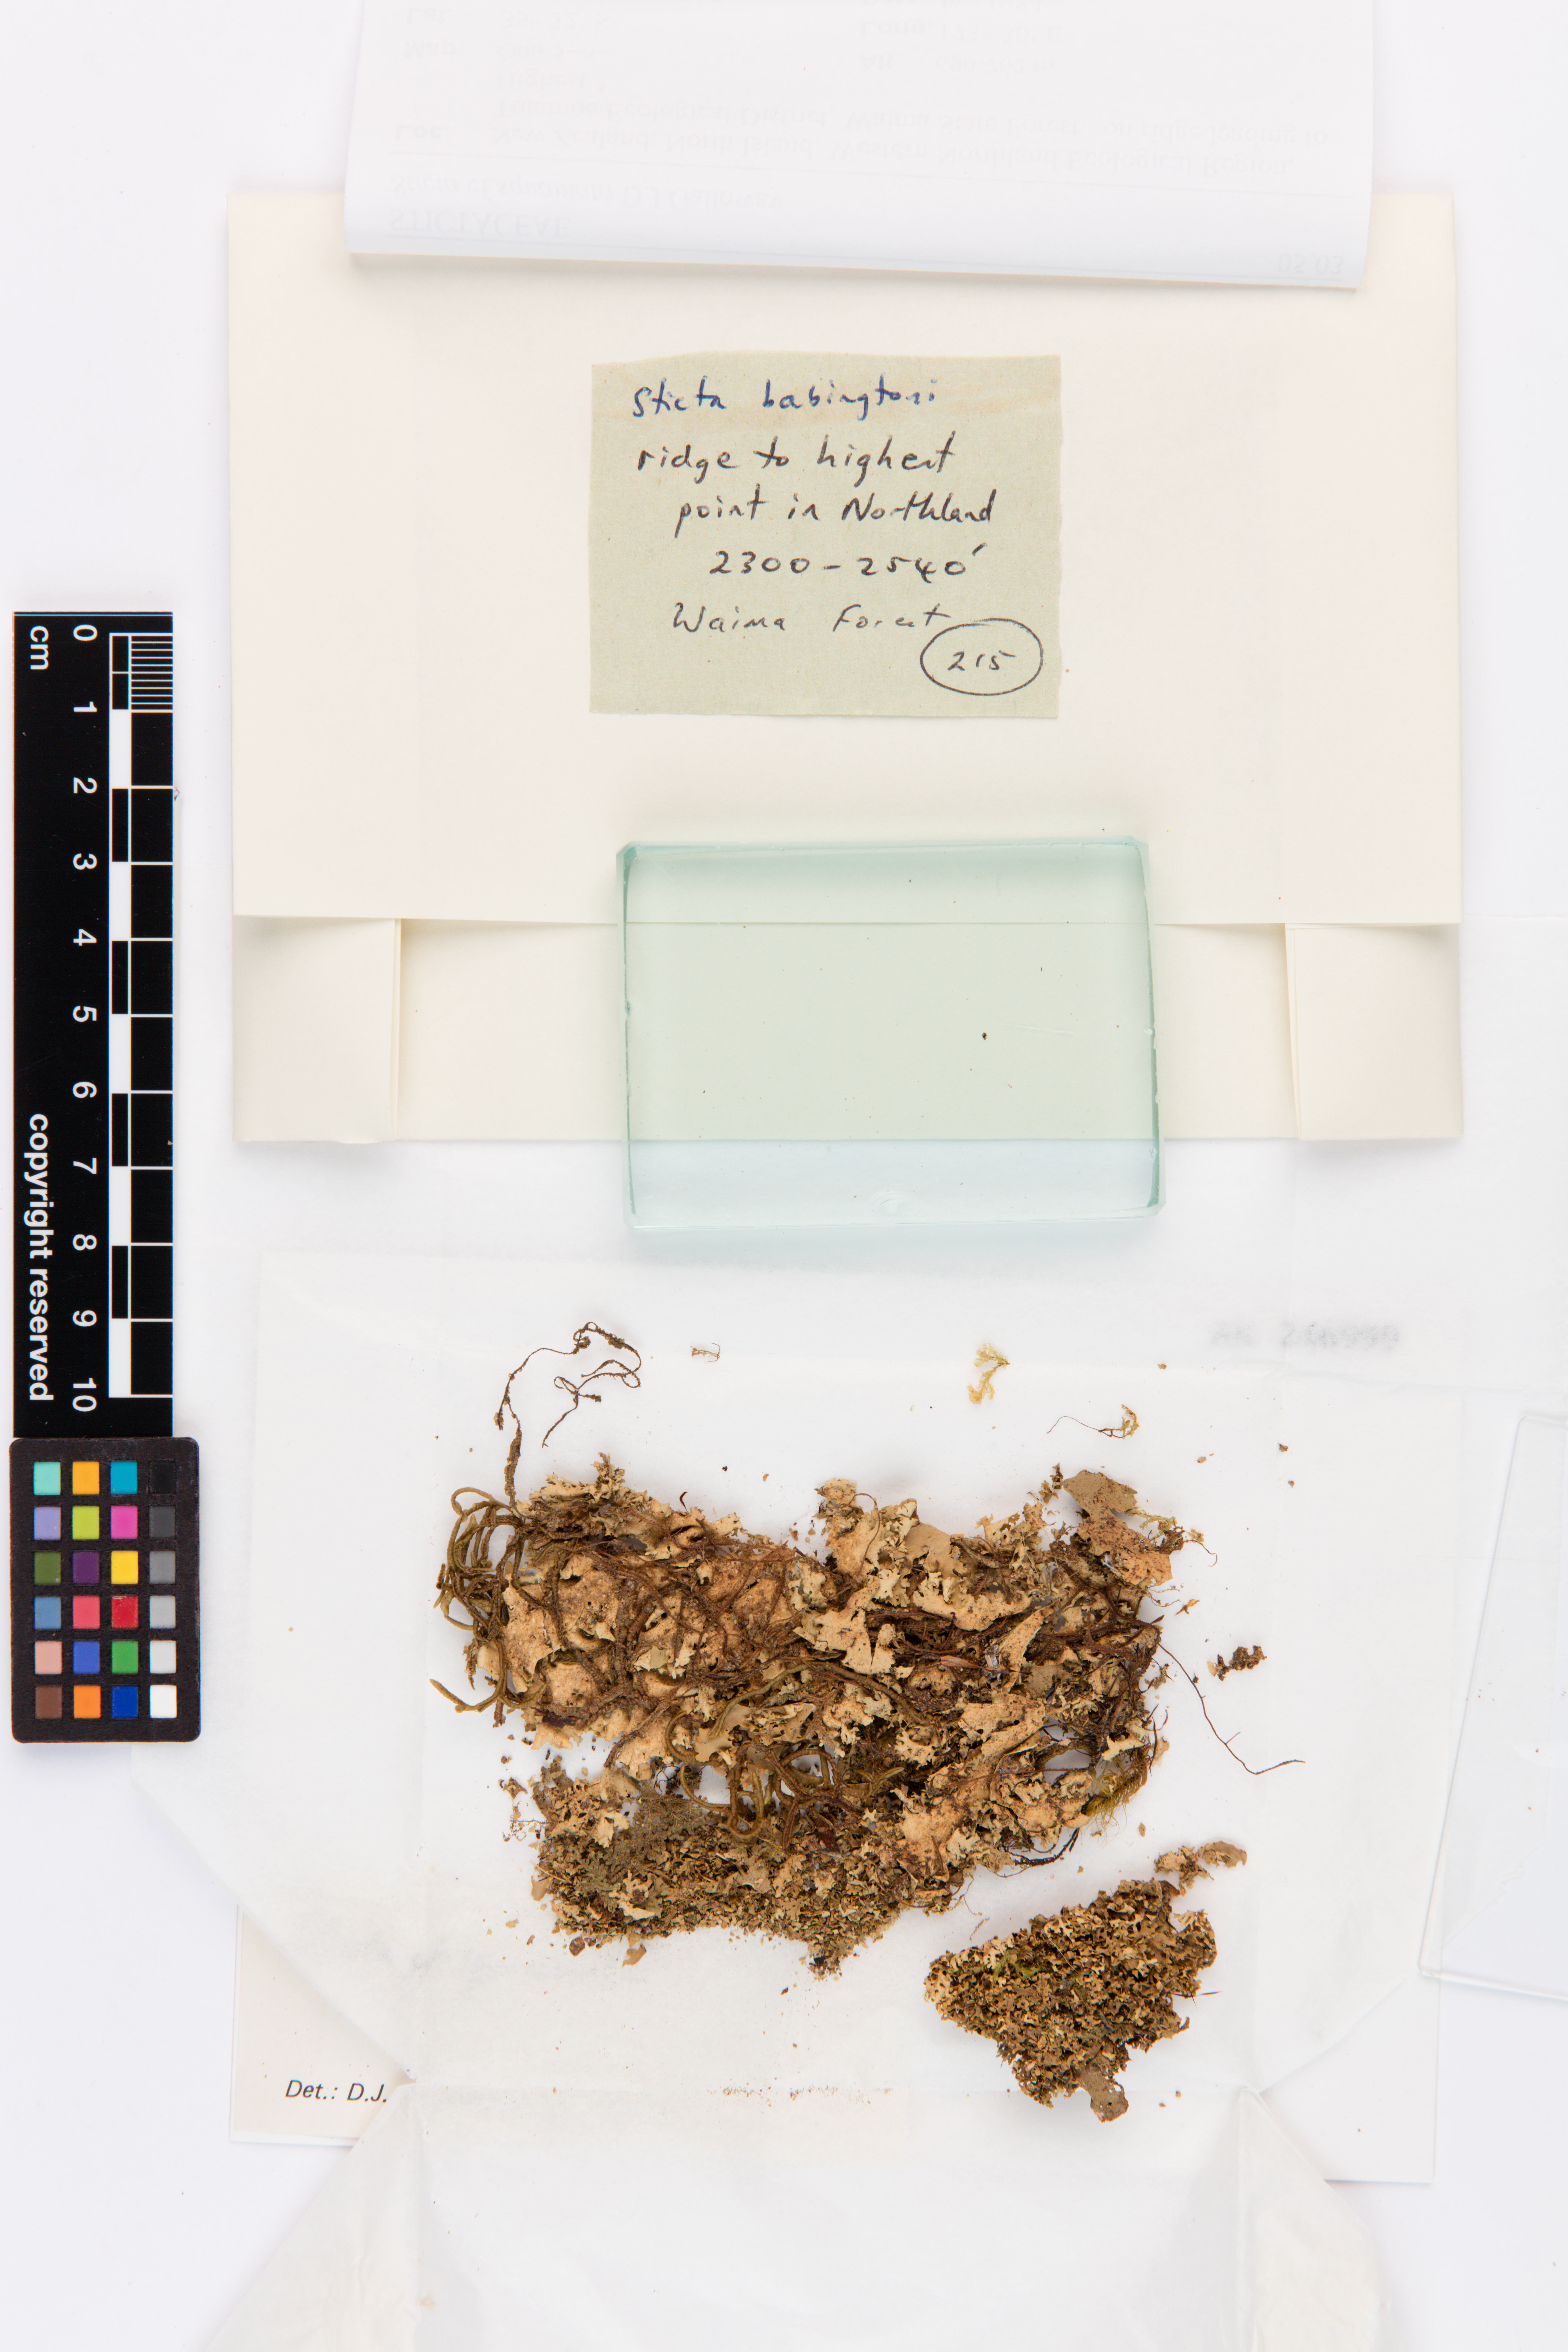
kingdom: Fungi
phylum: Ascomycota
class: Lecanoromycetes
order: Peltigerales
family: Lobariaceae
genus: Sticta
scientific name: Sticta squamata
